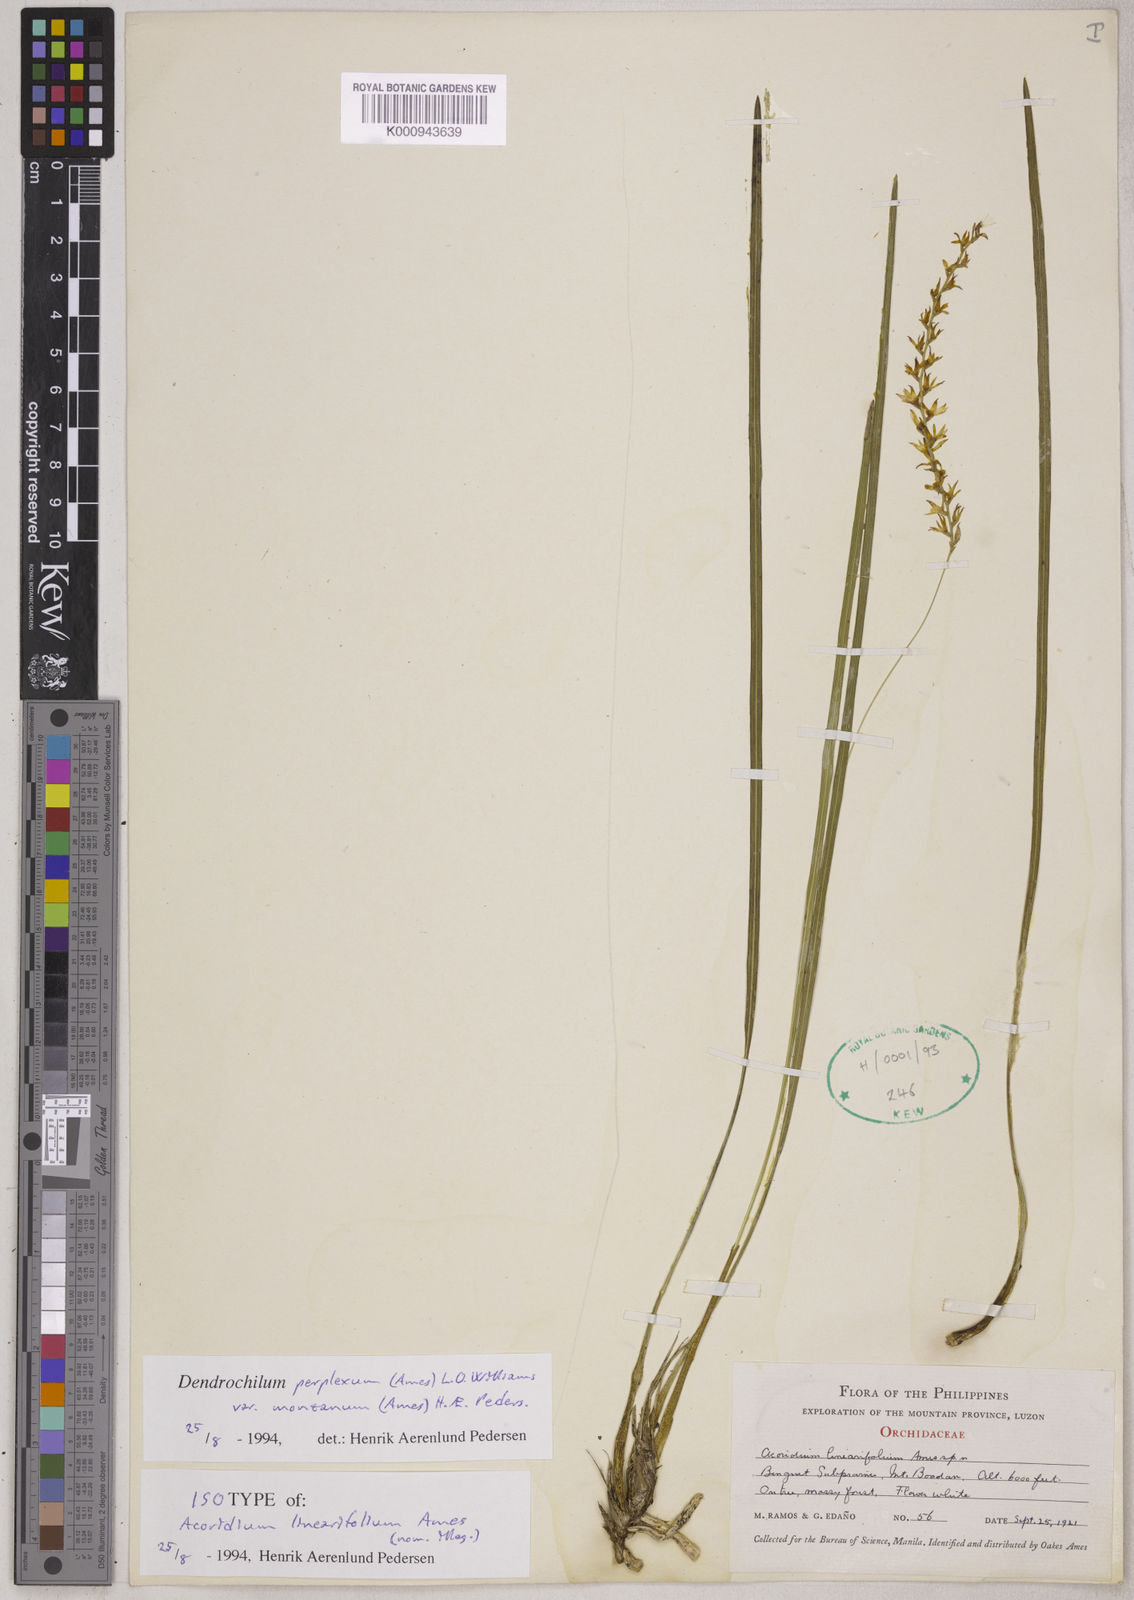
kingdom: Plantae
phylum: Tracheophyta
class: Liliopsida
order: Asparagales
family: Orchidaceae
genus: Coelogyne
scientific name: Coelogyne perplexa
